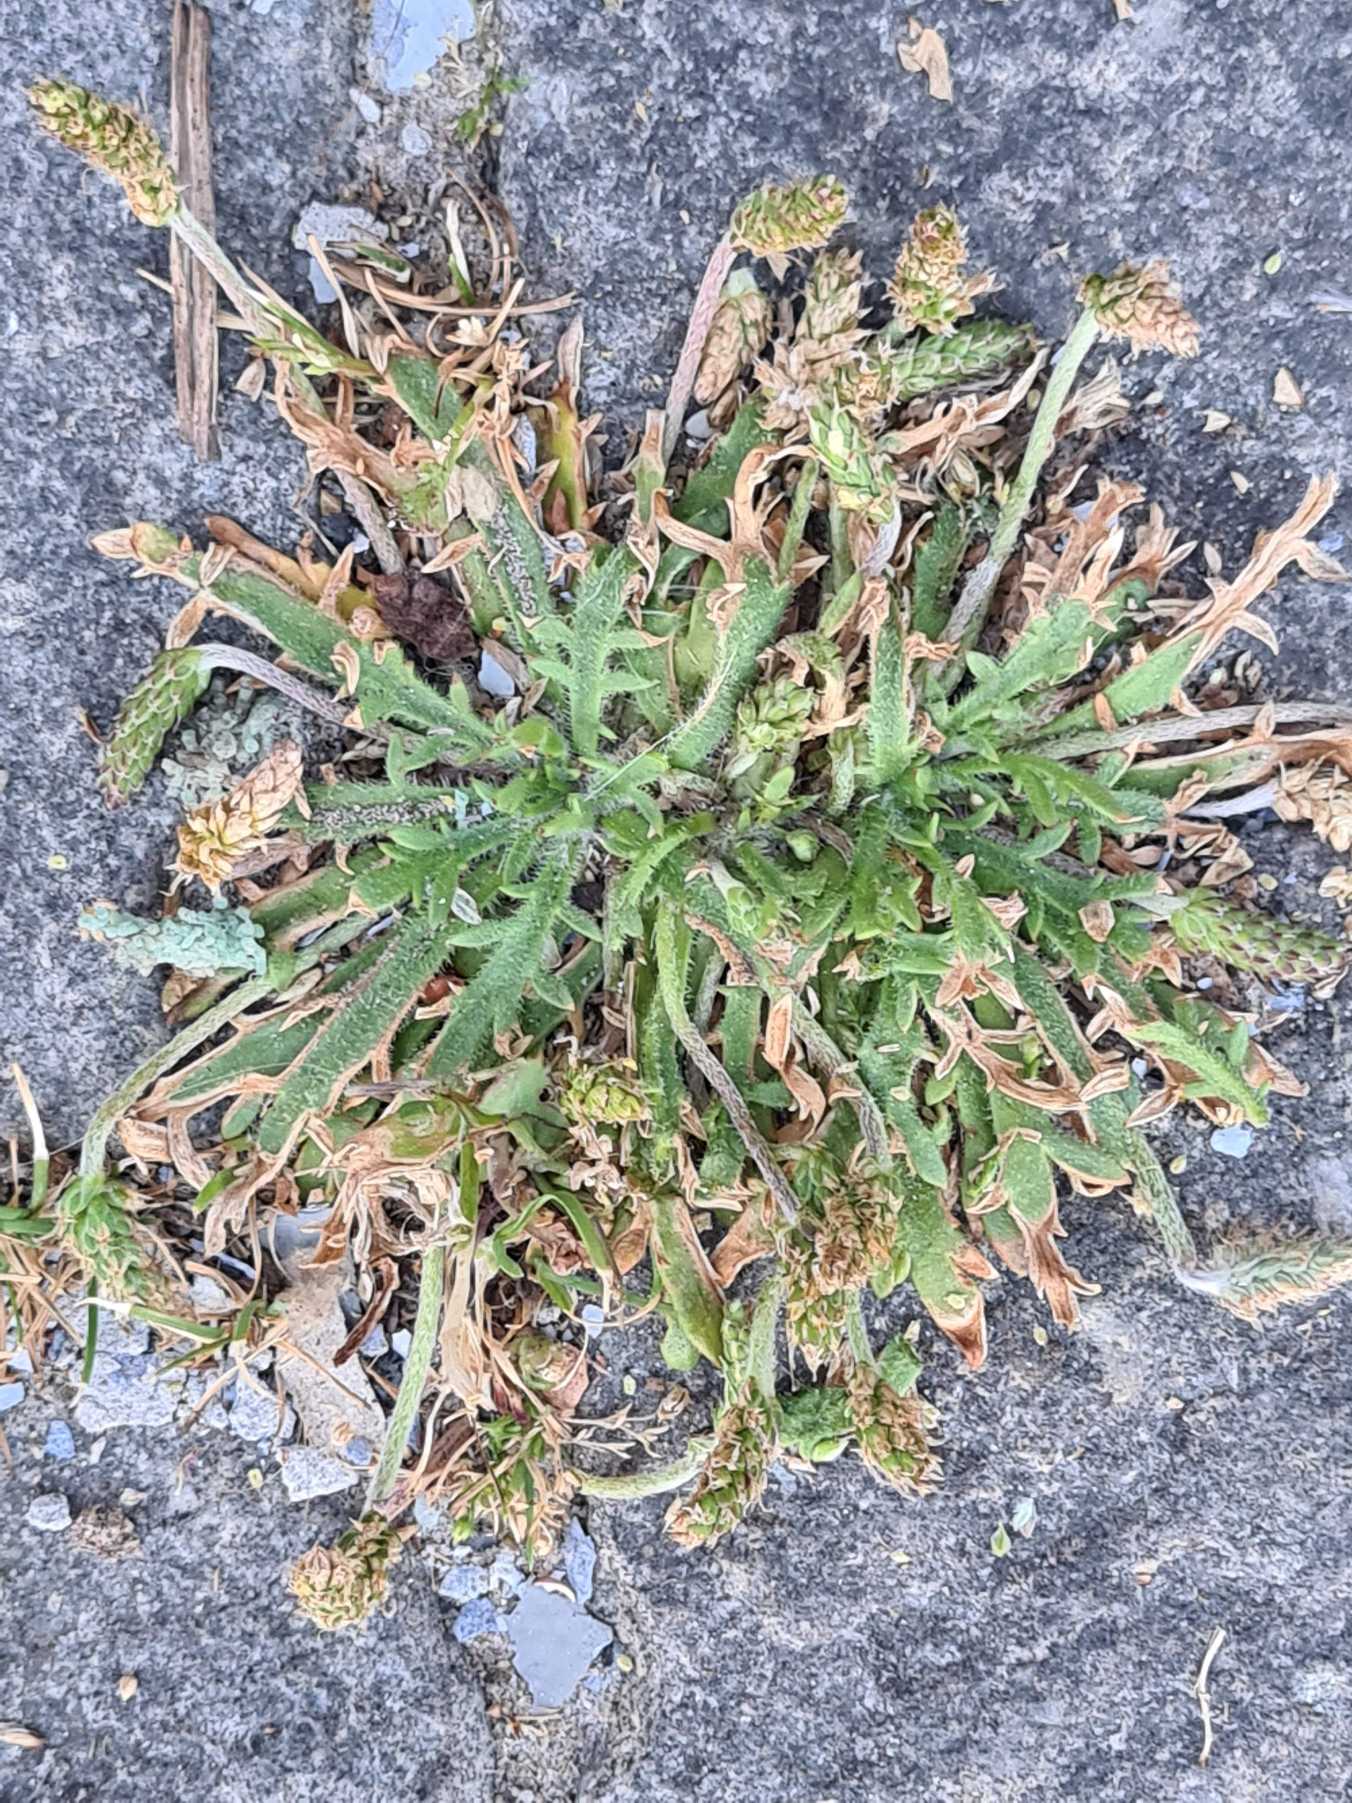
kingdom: Plantae
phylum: Tracheophyta
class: Magnoliopsida
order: Lamiales
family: Plantaginaceae
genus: Plantago
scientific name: Plantago coronopus
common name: Fliget vejbred
